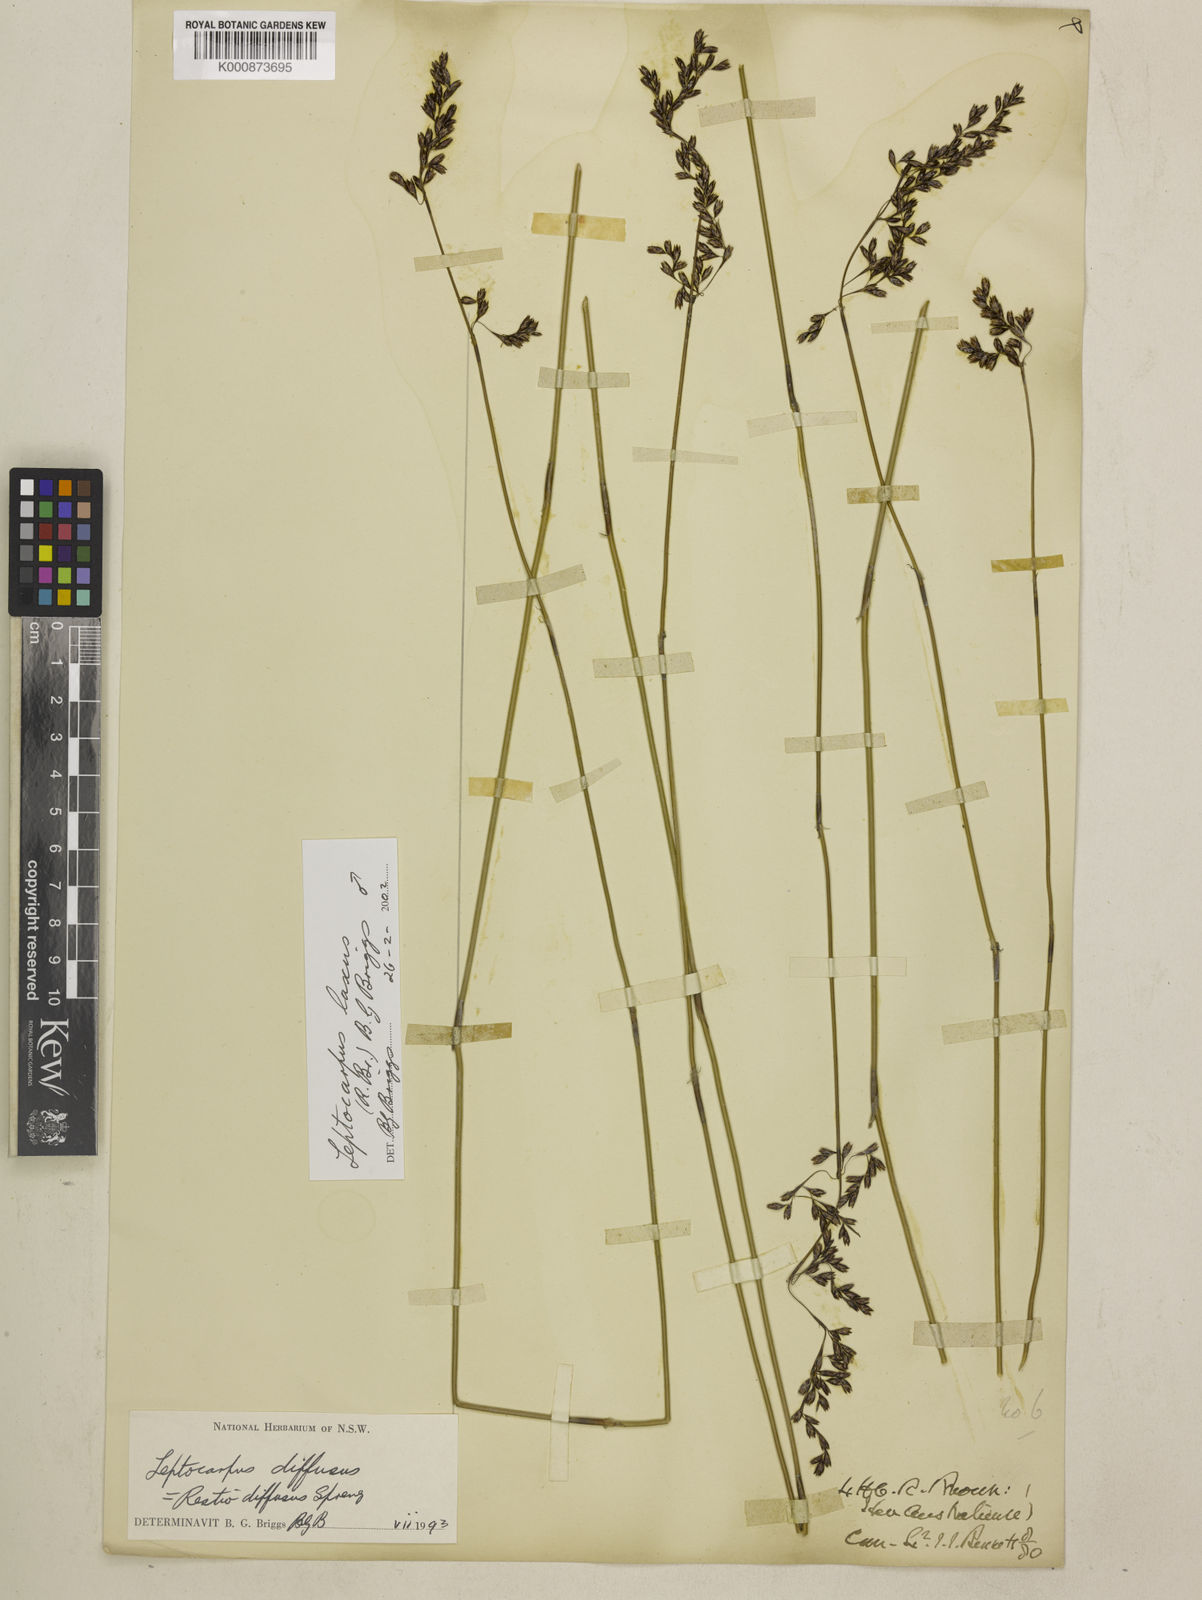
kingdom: Plantae
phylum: Tracheophyta
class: Liliopsida
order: Poales
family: Restionaceae
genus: Leptocarpus
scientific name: Leptocarpus laxus
